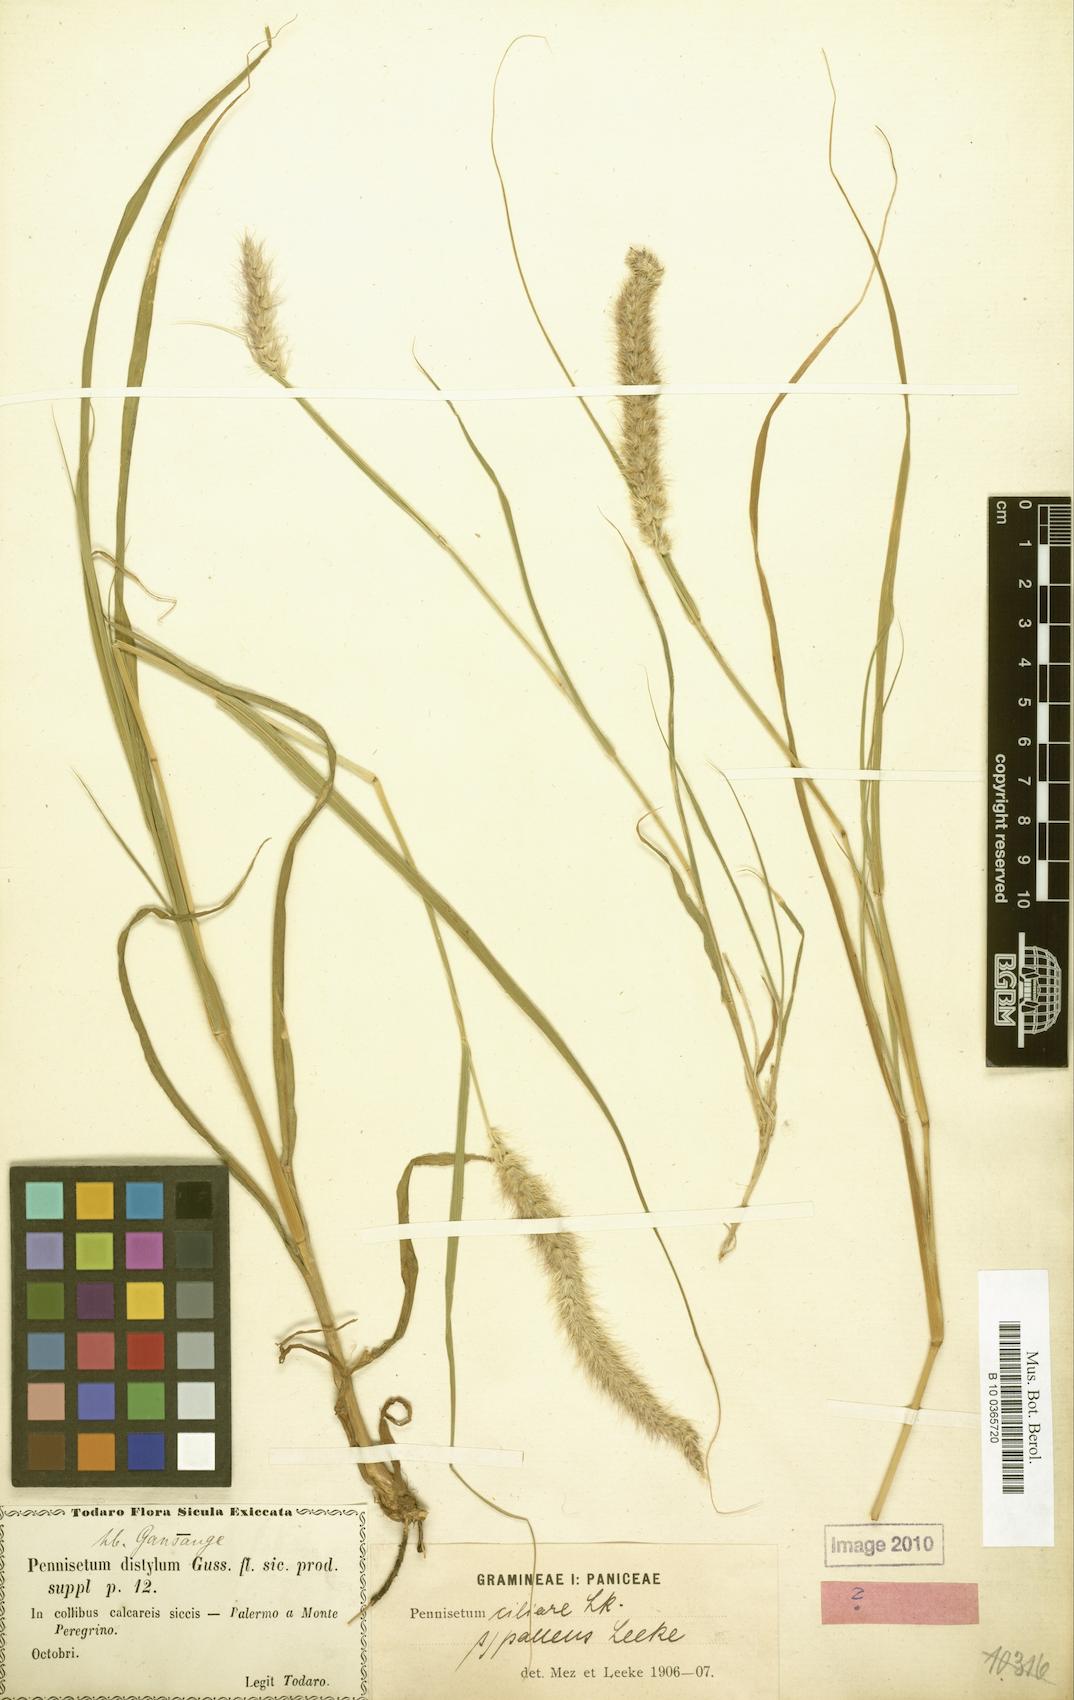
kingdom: Plantae
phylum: Tracheophyta
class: Liliopsida
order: Poales
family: Poaceae
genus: Cenchrus
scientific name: Cenchrus ciliaris
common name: Buffelgrass
